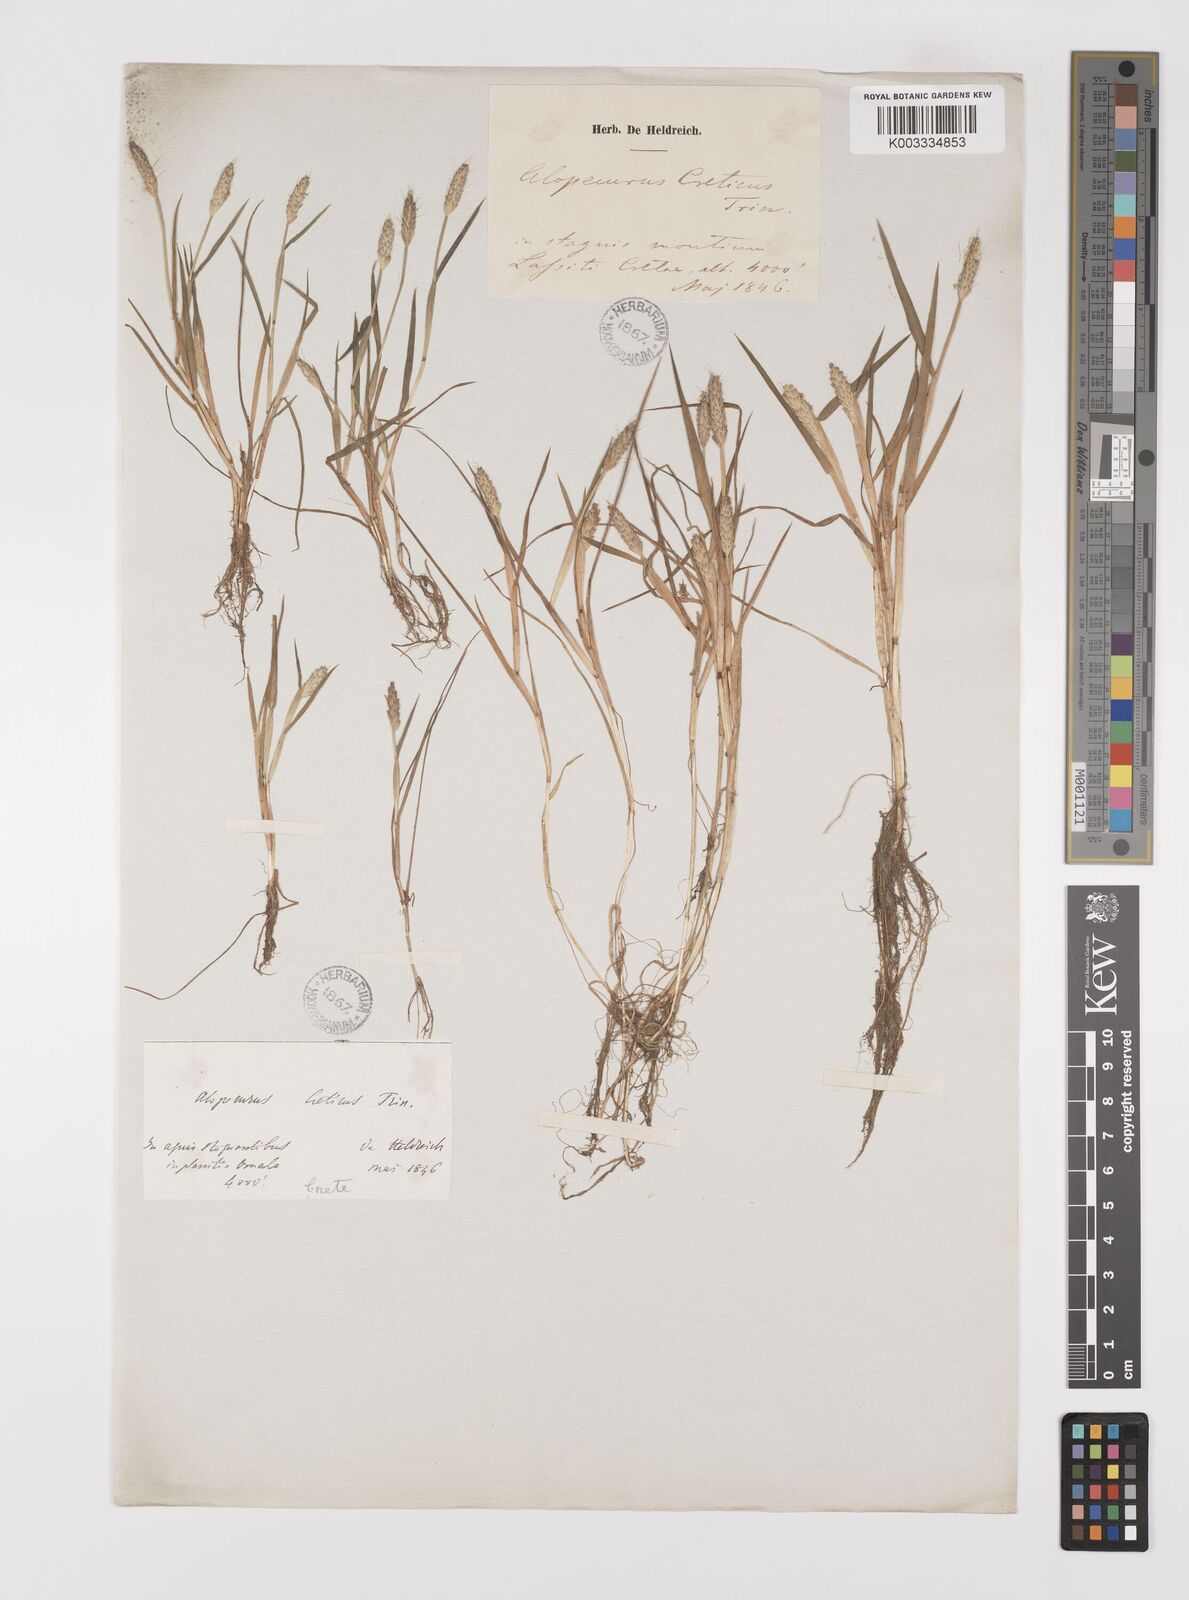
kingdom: Plantae
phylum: Tracheophyta
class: Liliopsida
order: Poales
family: Poaceae
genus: Alopecurus
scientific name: Alopecurus creticus
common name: Cretan meadow foxtail
